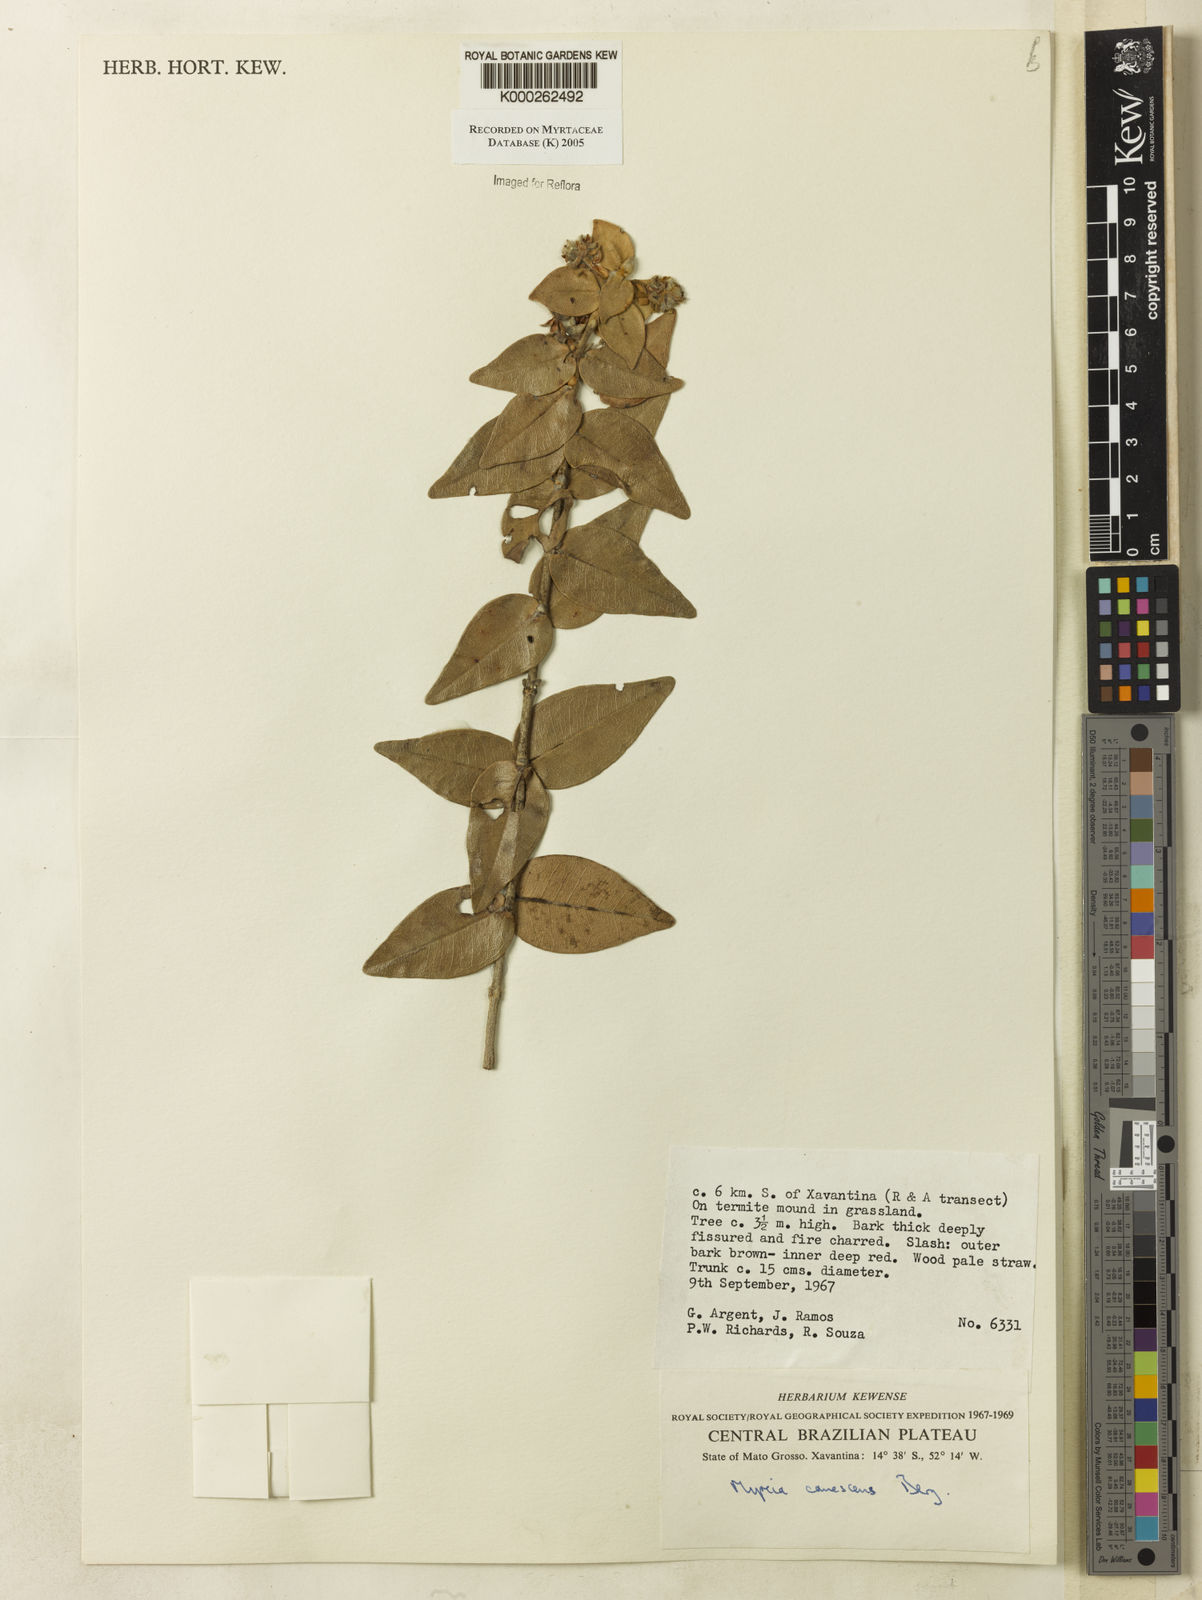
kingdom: Plantae
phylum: Tracheophyta
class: Magnoliopsida
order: Myrtales
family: Myrtaceae
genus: Myrcia
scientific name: Myrcia canescens
